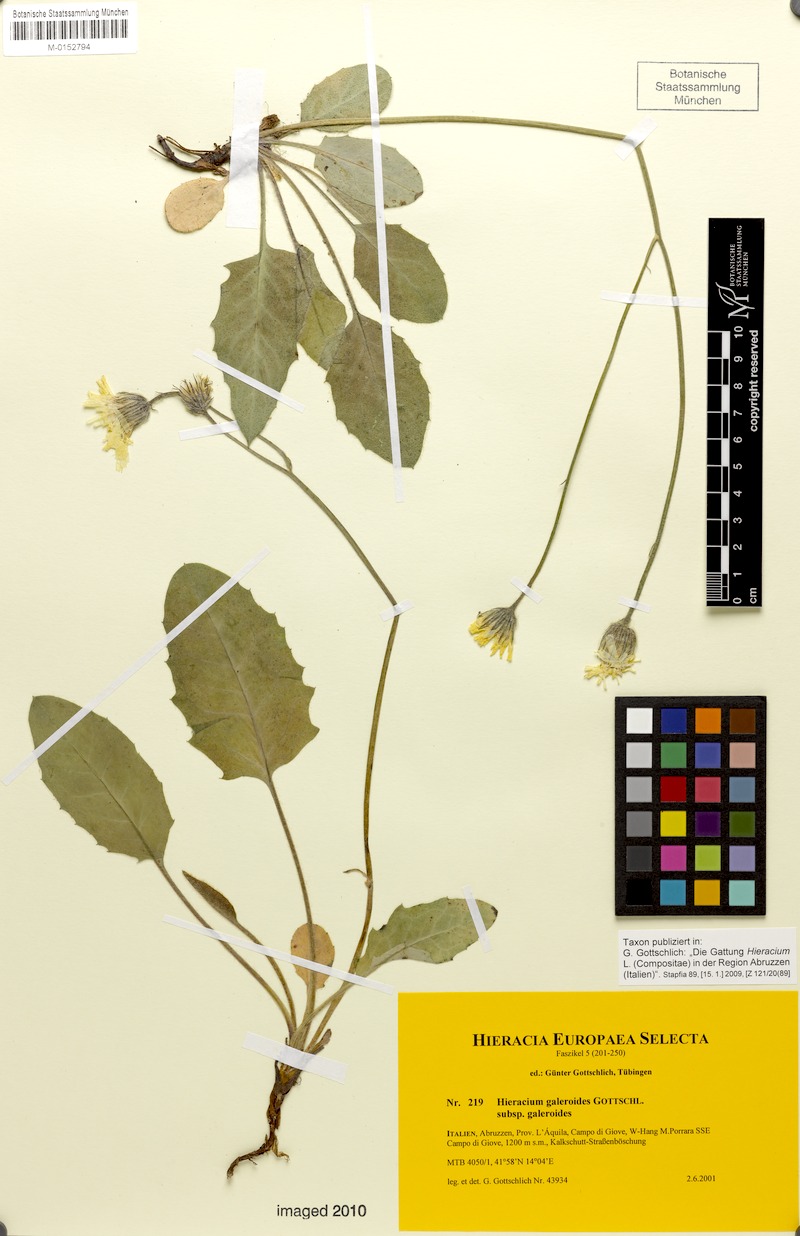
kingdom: Plantae
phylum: Tracheophyta
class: Magnoliopsida
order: Asterales
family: Asteraceae
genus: Hieracium
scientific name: Hieracium galeroides
